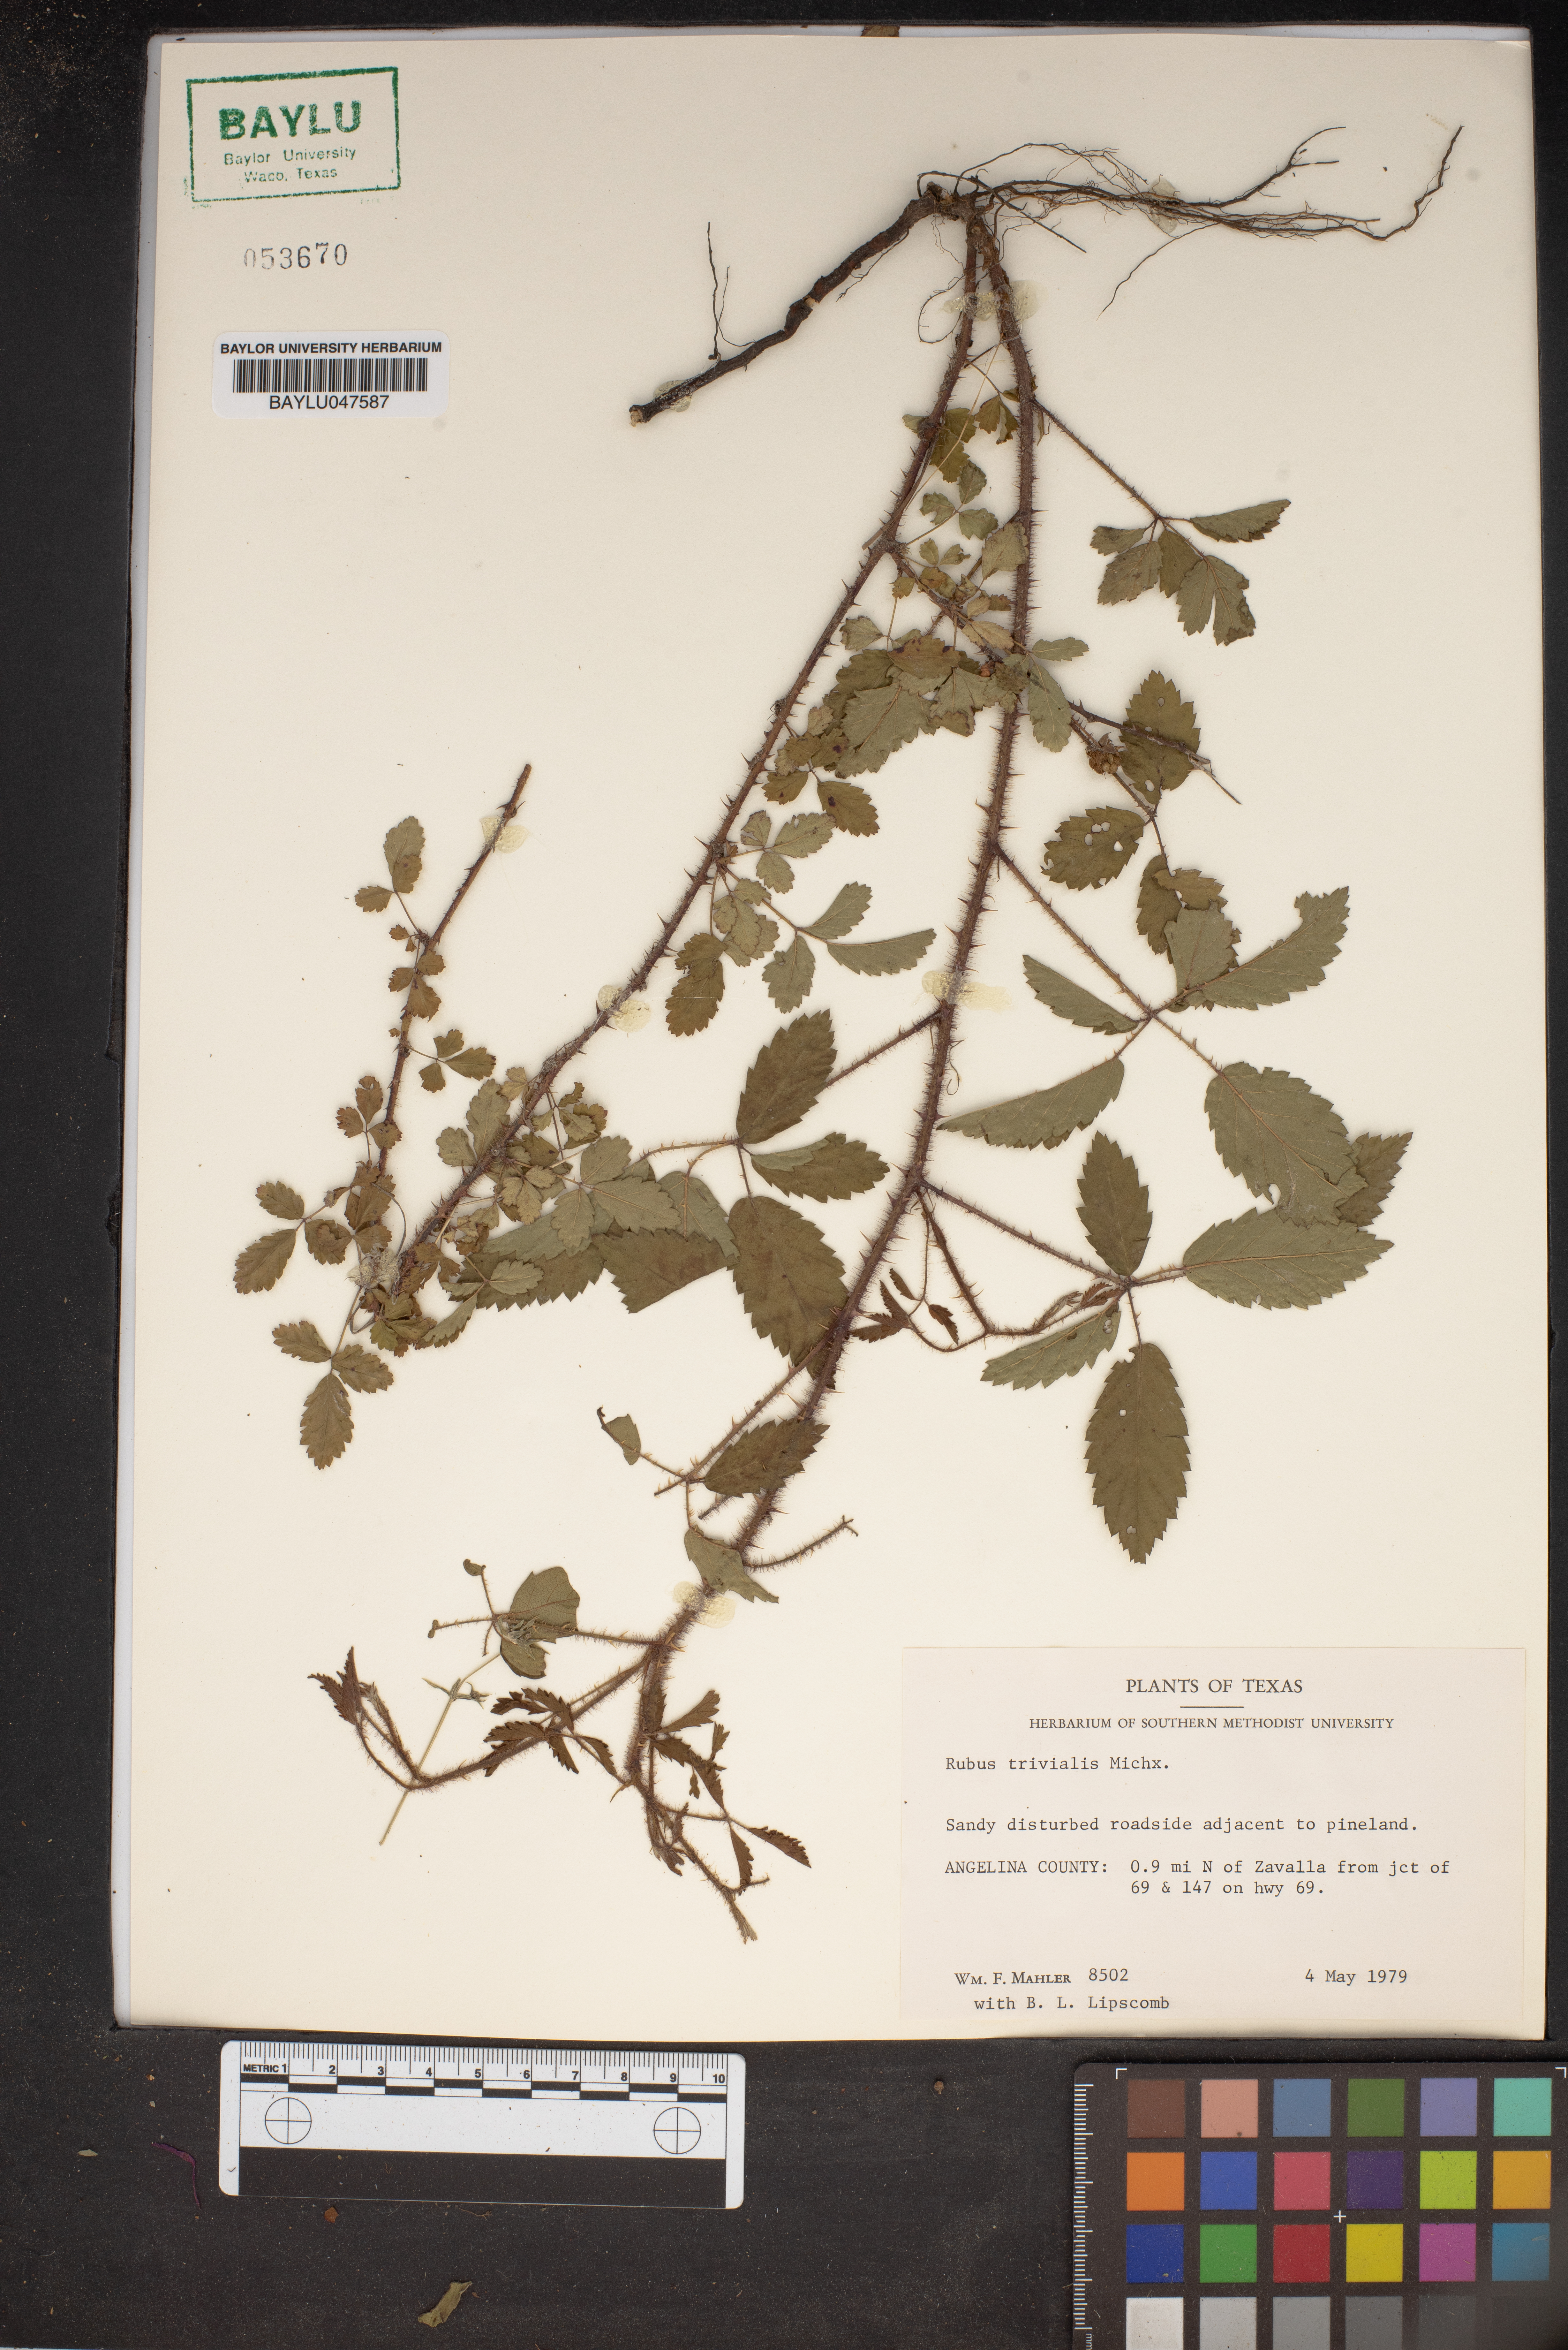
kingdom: Plantae
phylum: Tracheophyta
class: Magnoliopsida
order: Rosales
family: Rosaceae
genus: Rubus
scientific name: Rubus trivialis
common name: Southern dewberry
